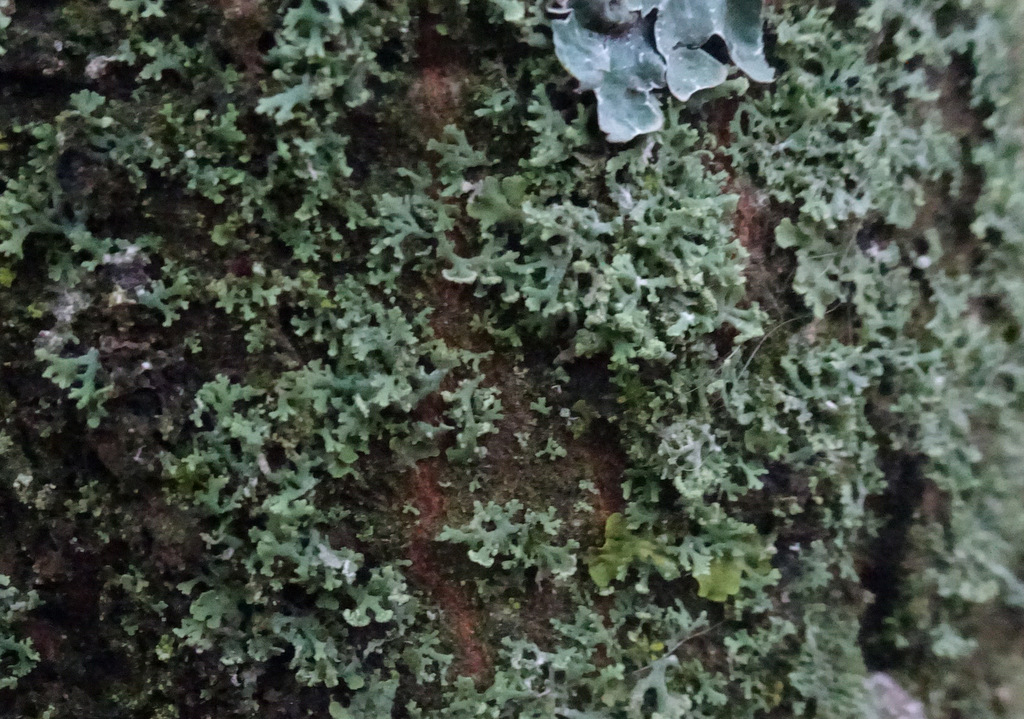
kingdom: Fungi
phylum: Ascomycota
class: Lecanoromycetes
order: Caliciales
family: Physciaceae
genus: Physcia
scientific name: Physcia tenella
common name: spæd rosetlav
